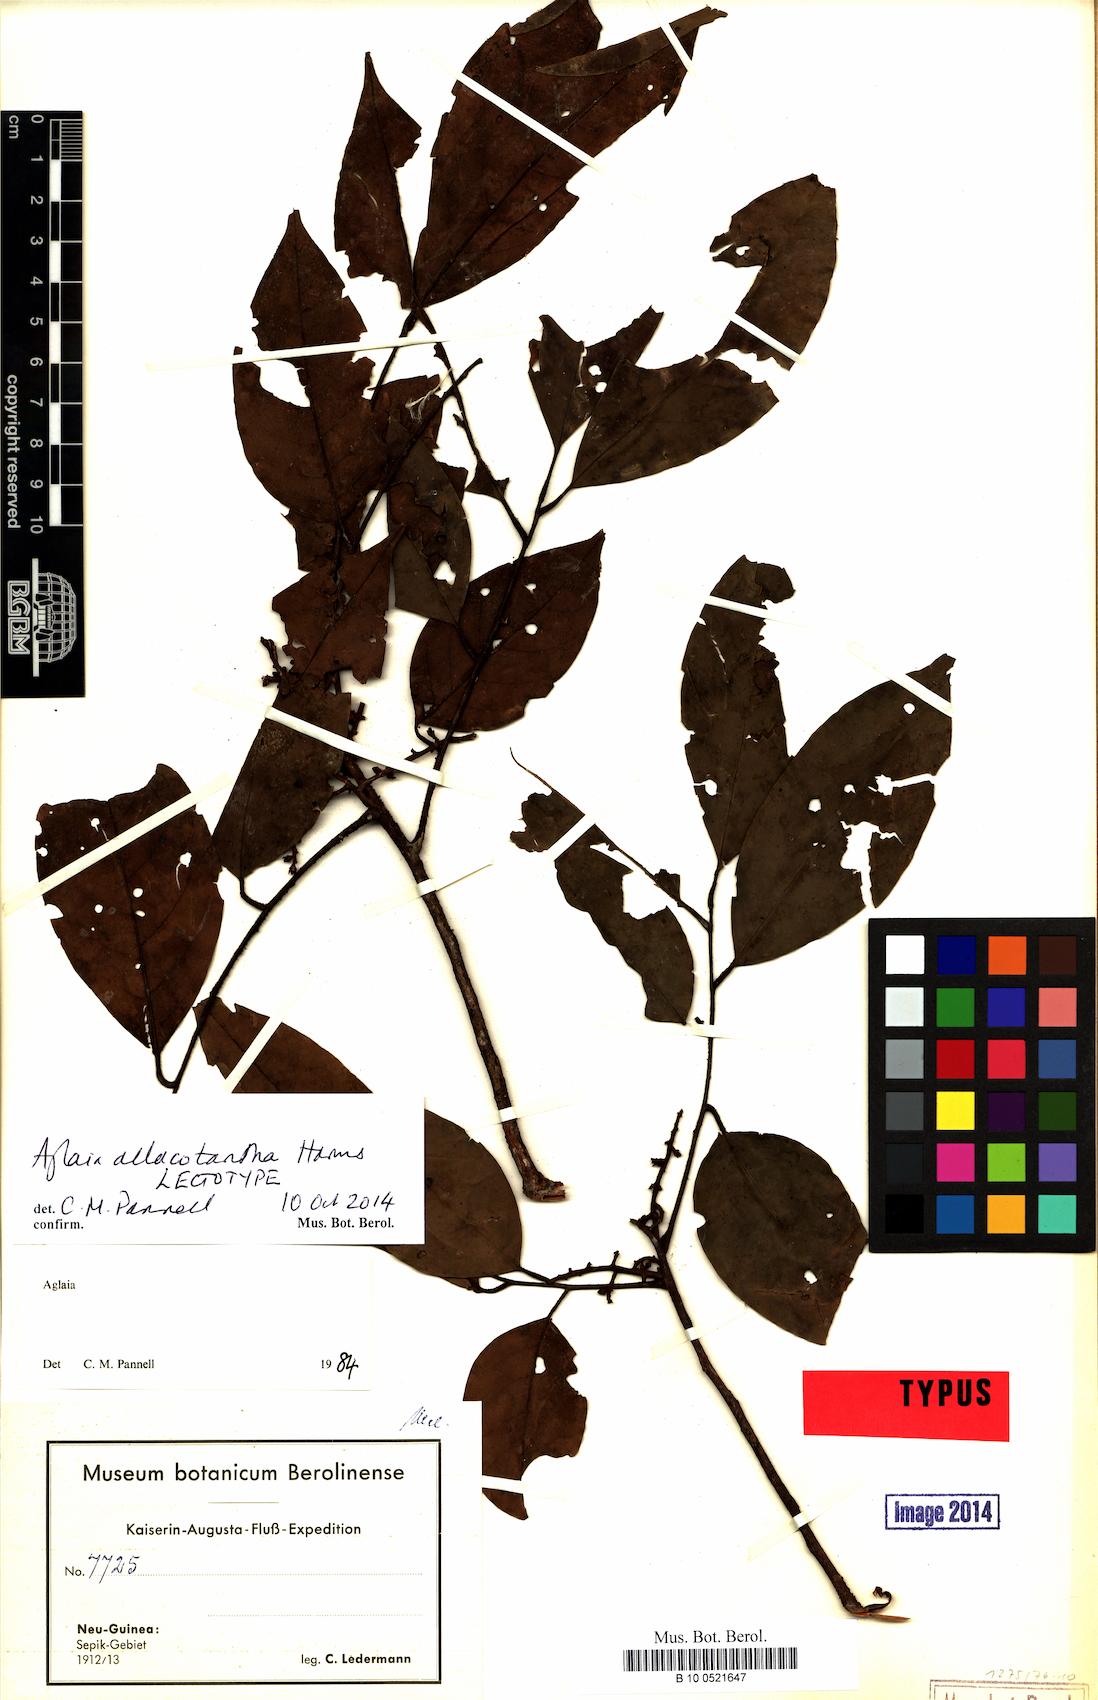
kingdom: Plantae
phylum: Tracheophyta
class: Magnoliopsida
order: Sapindales
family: Meliaceae
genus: Aglaia
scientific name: Aglaia allocotantha
